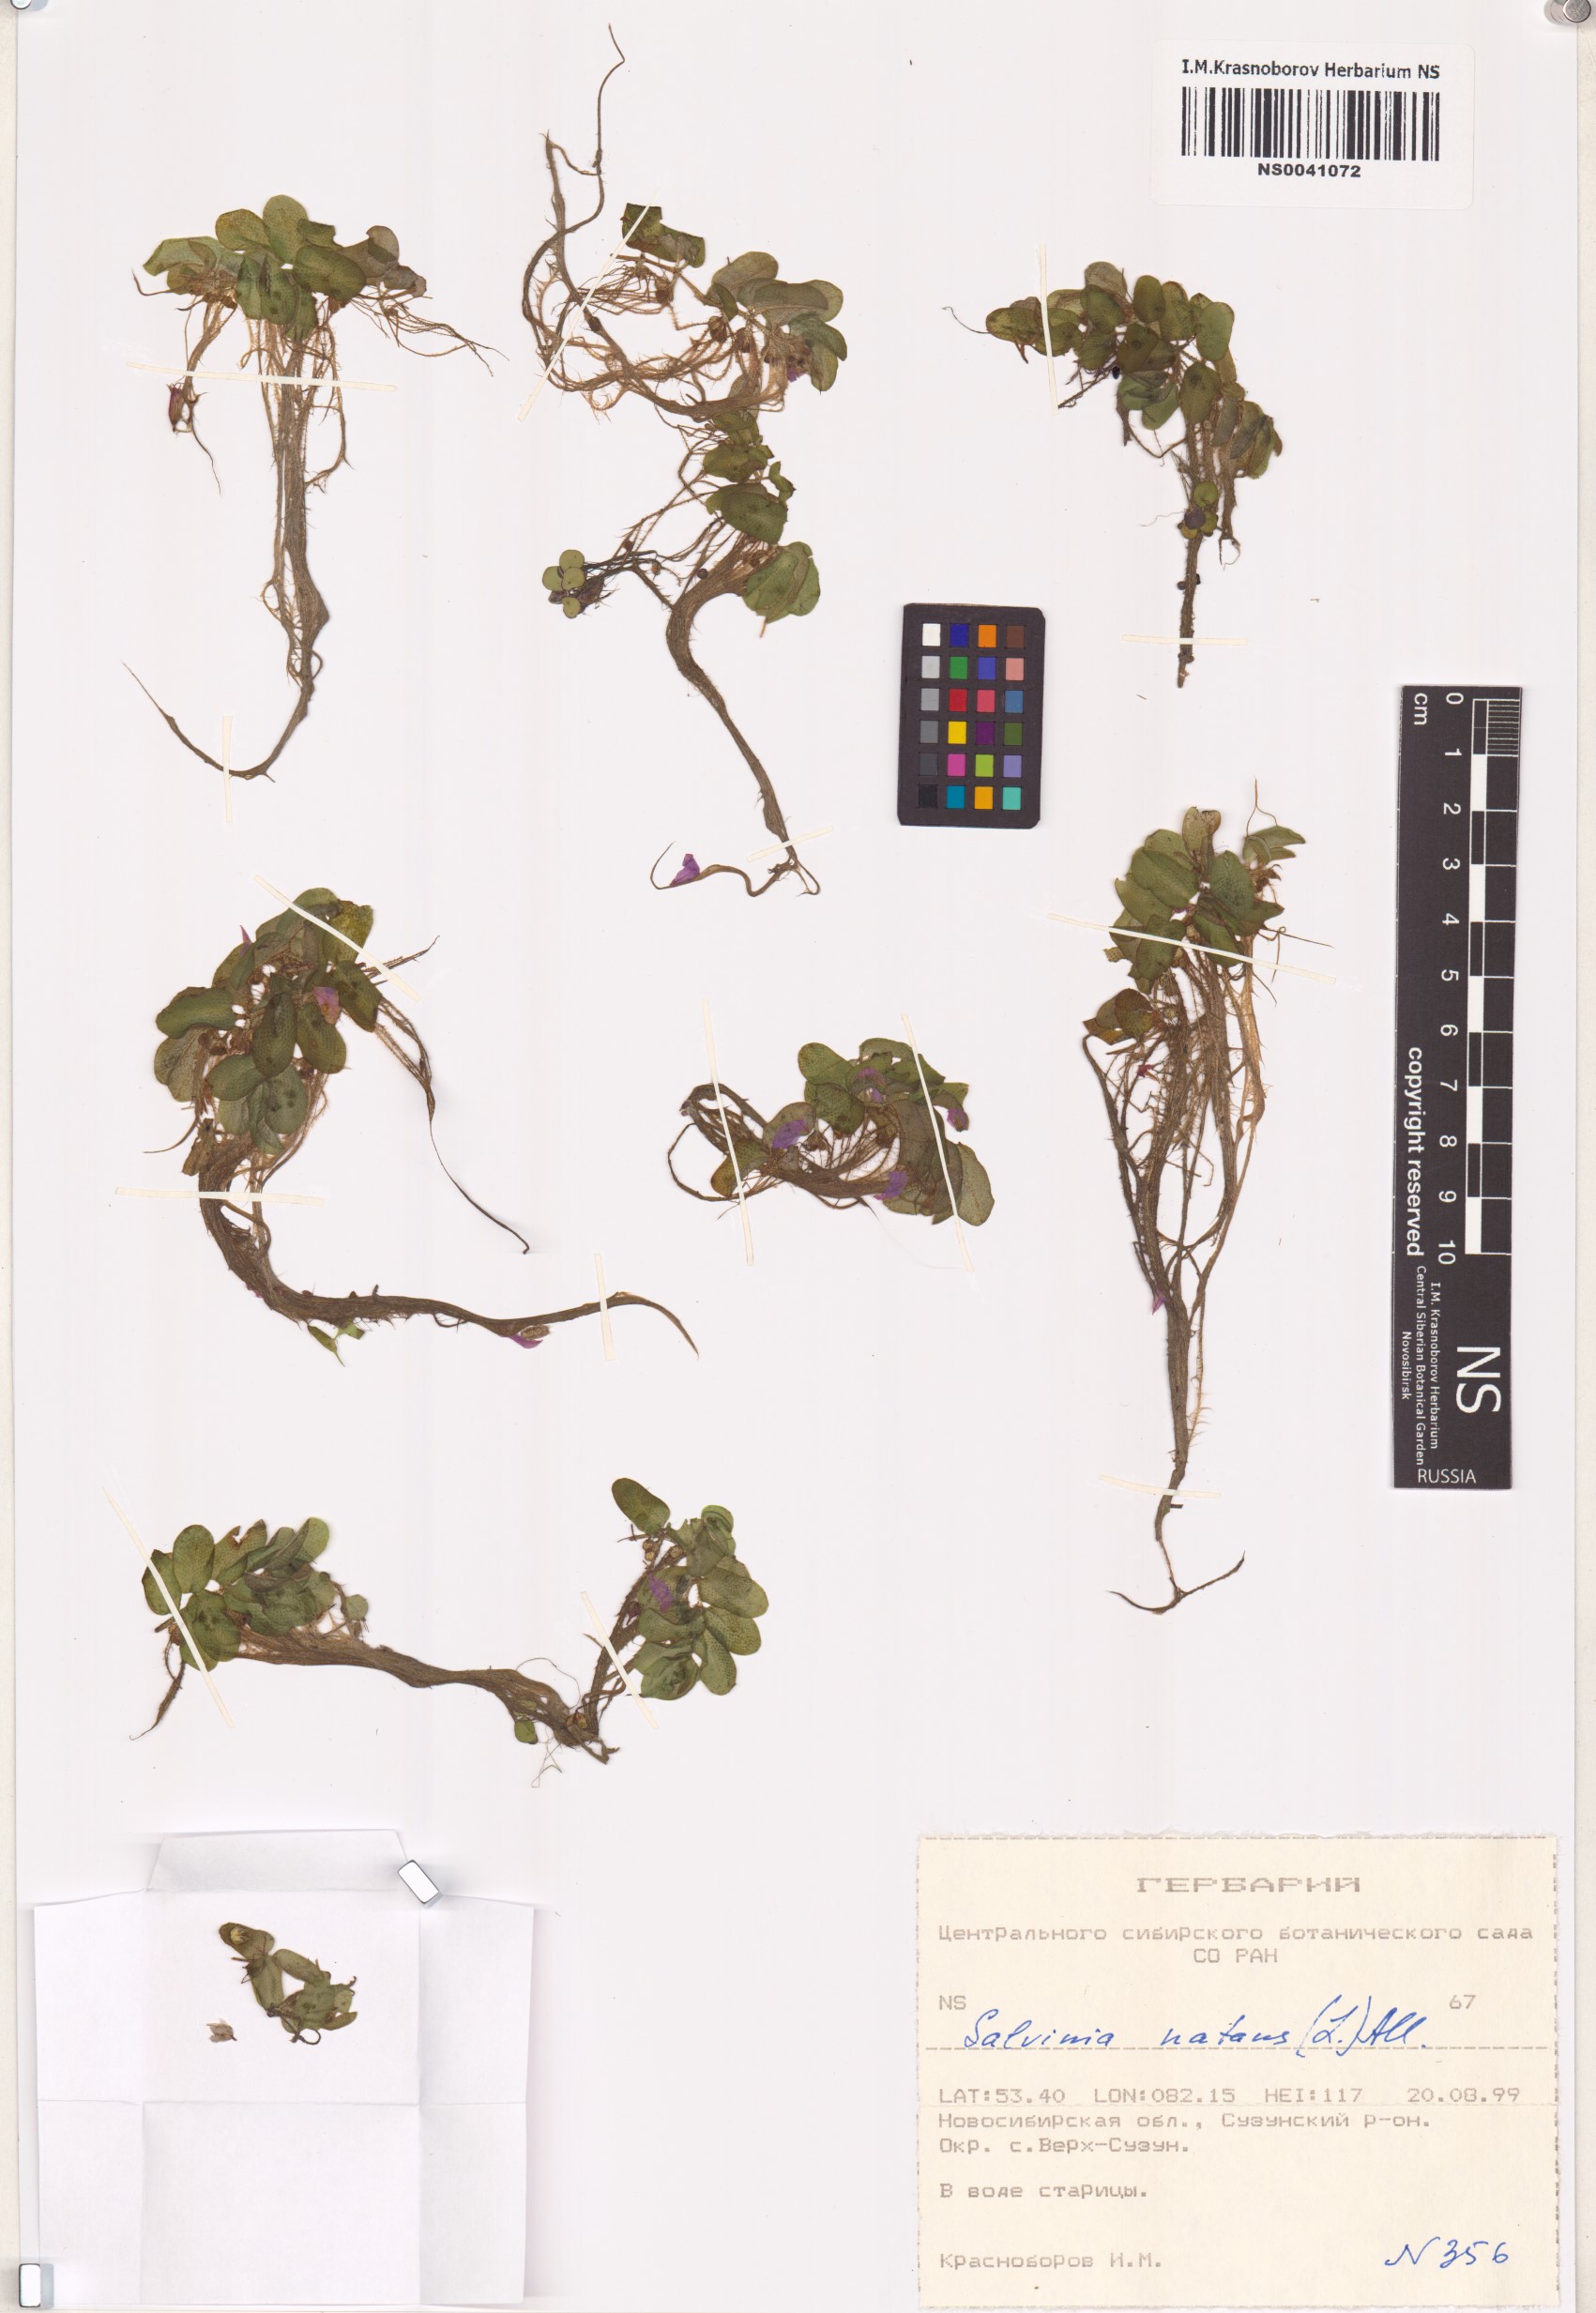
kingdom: Plantae
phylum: Tracheophyta
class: Polypodiopsida
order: Salviniales
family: Salviniaceae
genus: Salvinia
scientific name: Salvinia natans
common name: Floating fern
